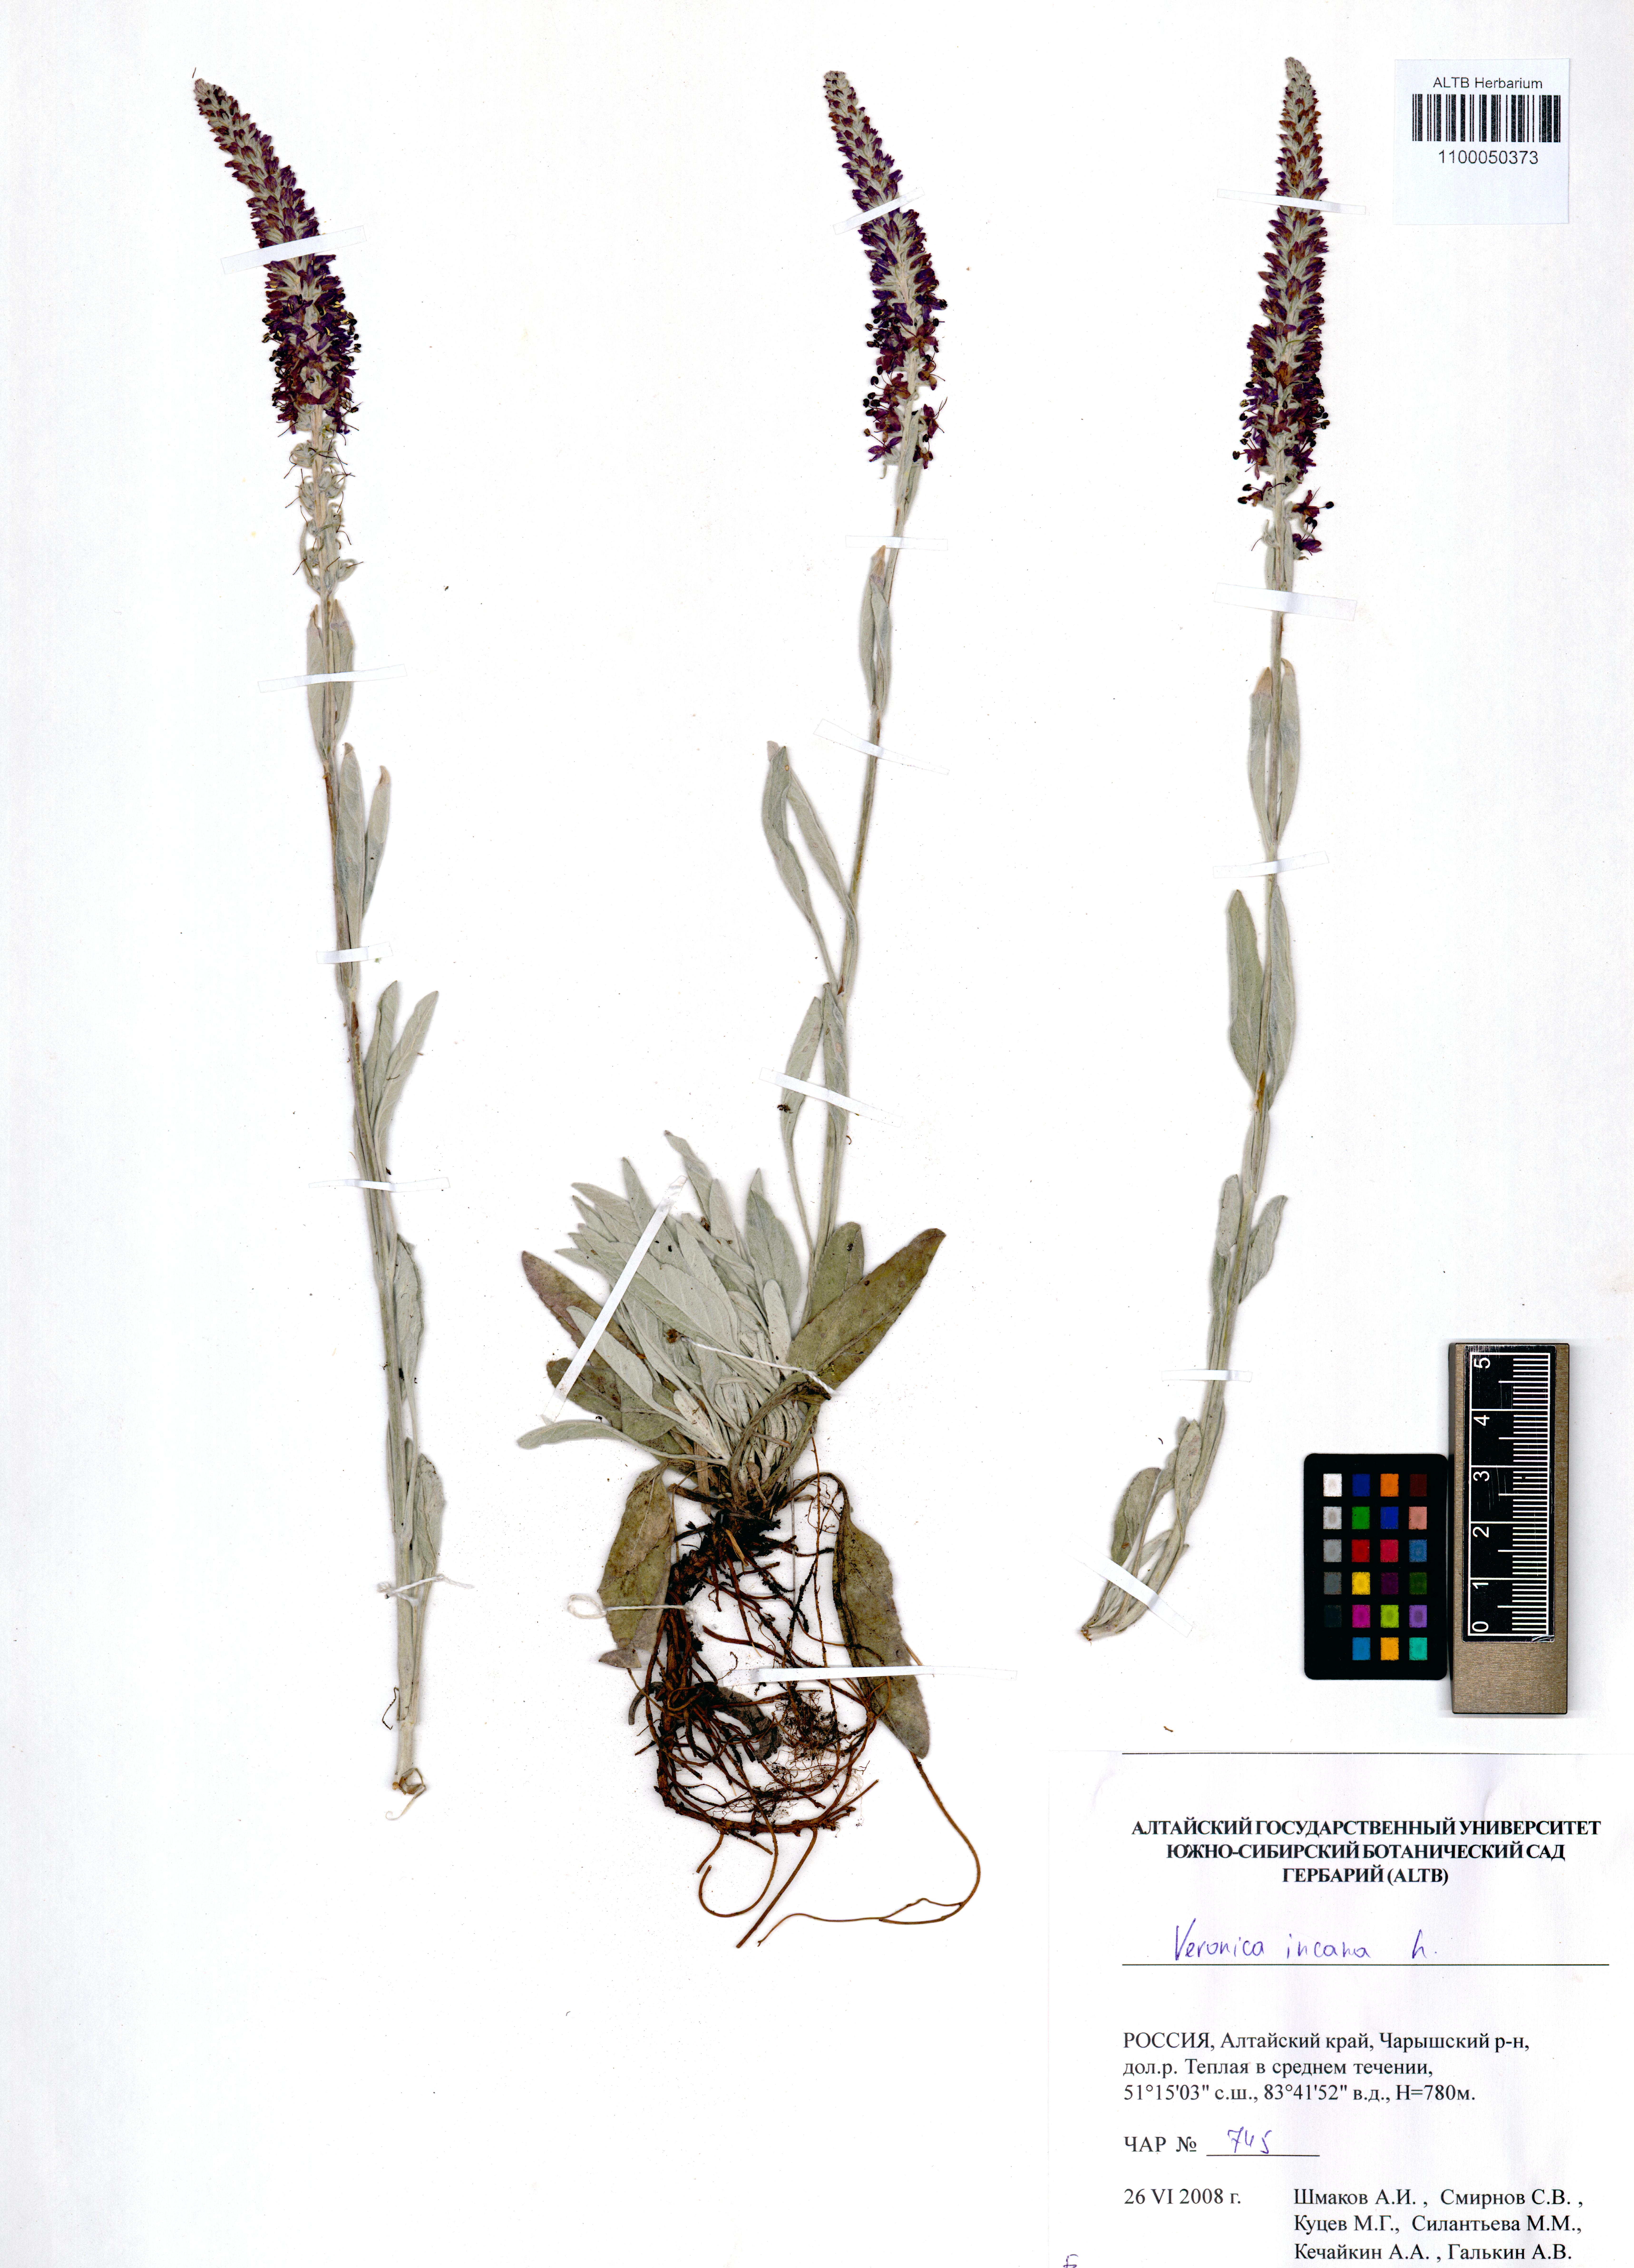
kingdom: Plantae
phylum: Tracheophyta
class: Magnoliopsida
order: Lamiales
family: Plantaginaceae
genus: Veronica
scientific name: Veronica incana
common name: Silver speedwell
